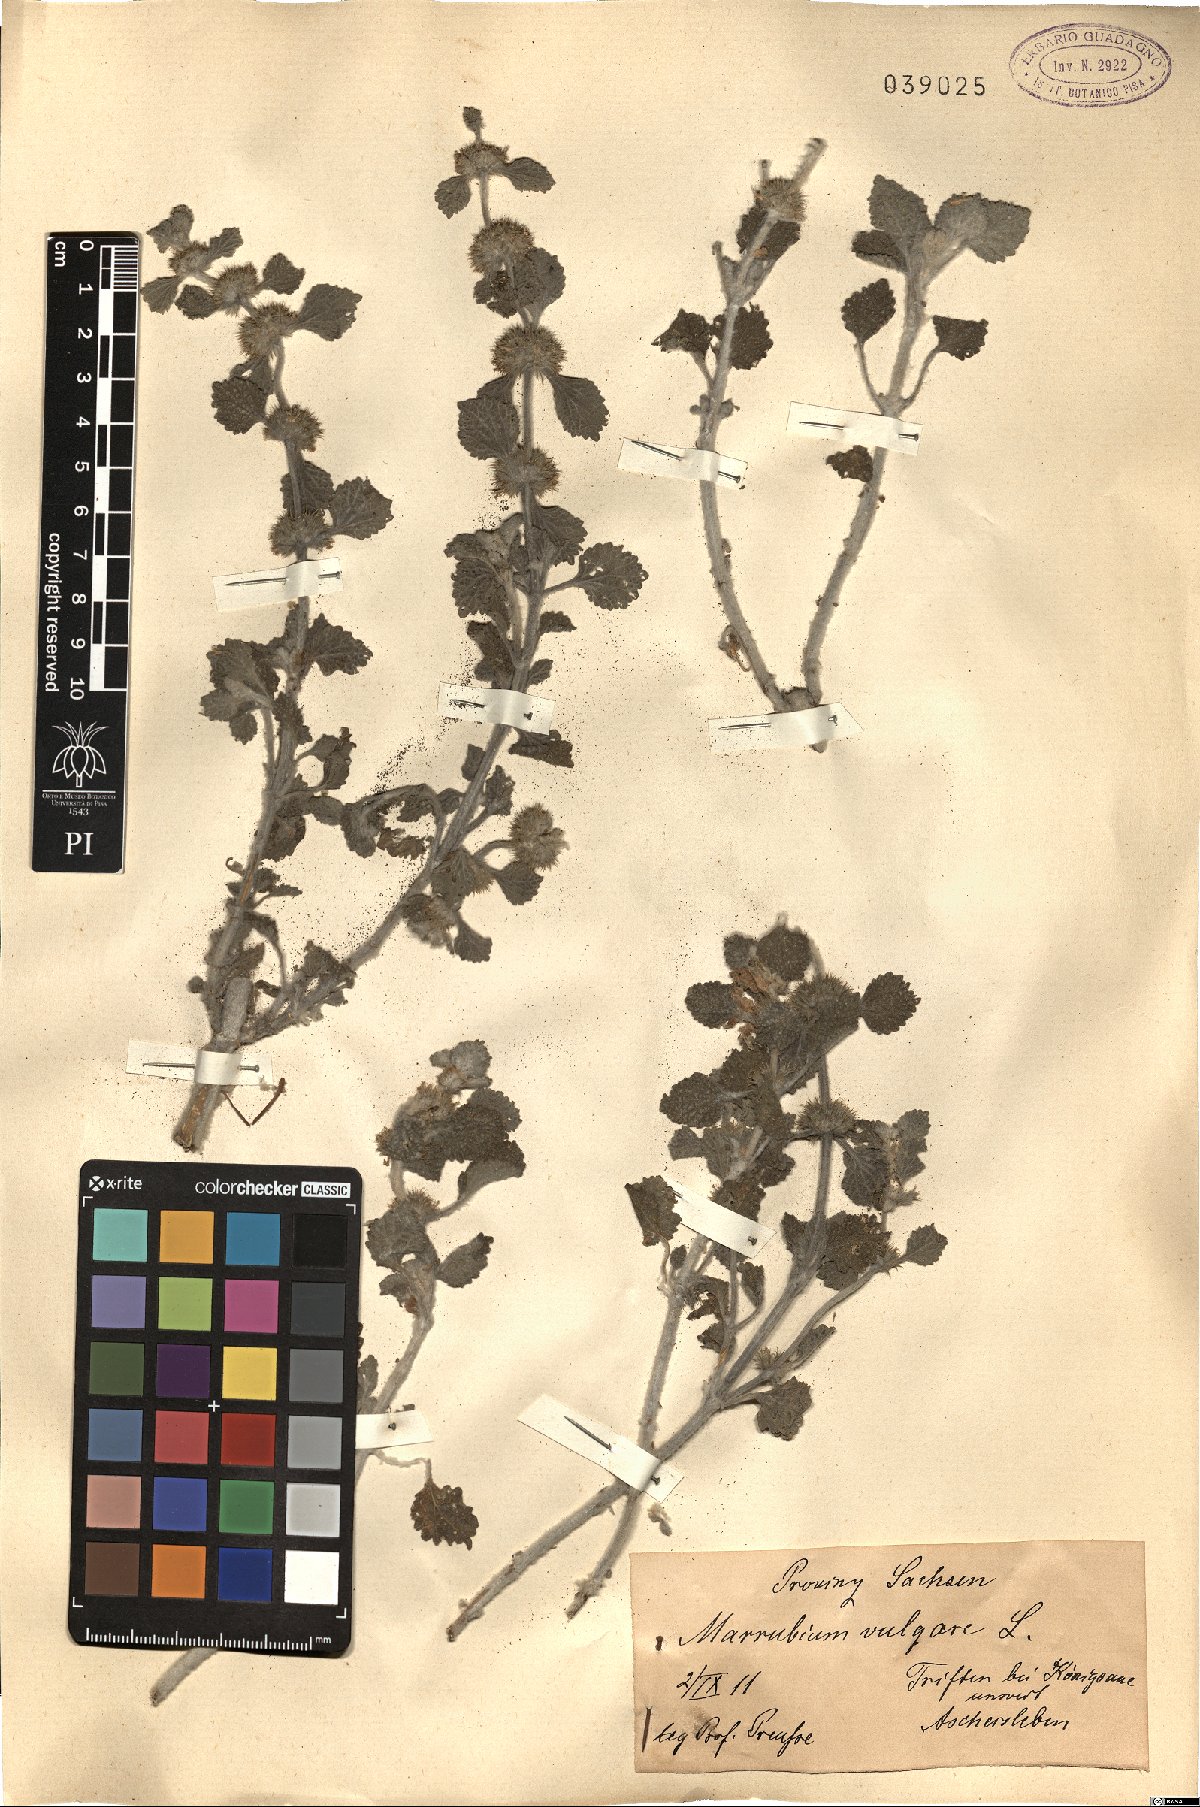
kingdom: Plantae
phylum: Tracheophyta
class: Magnoliopsida
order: Lamiales
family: Lamiaceae
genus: Marrubium
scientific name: Marrubium vulgare
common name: Horehound
